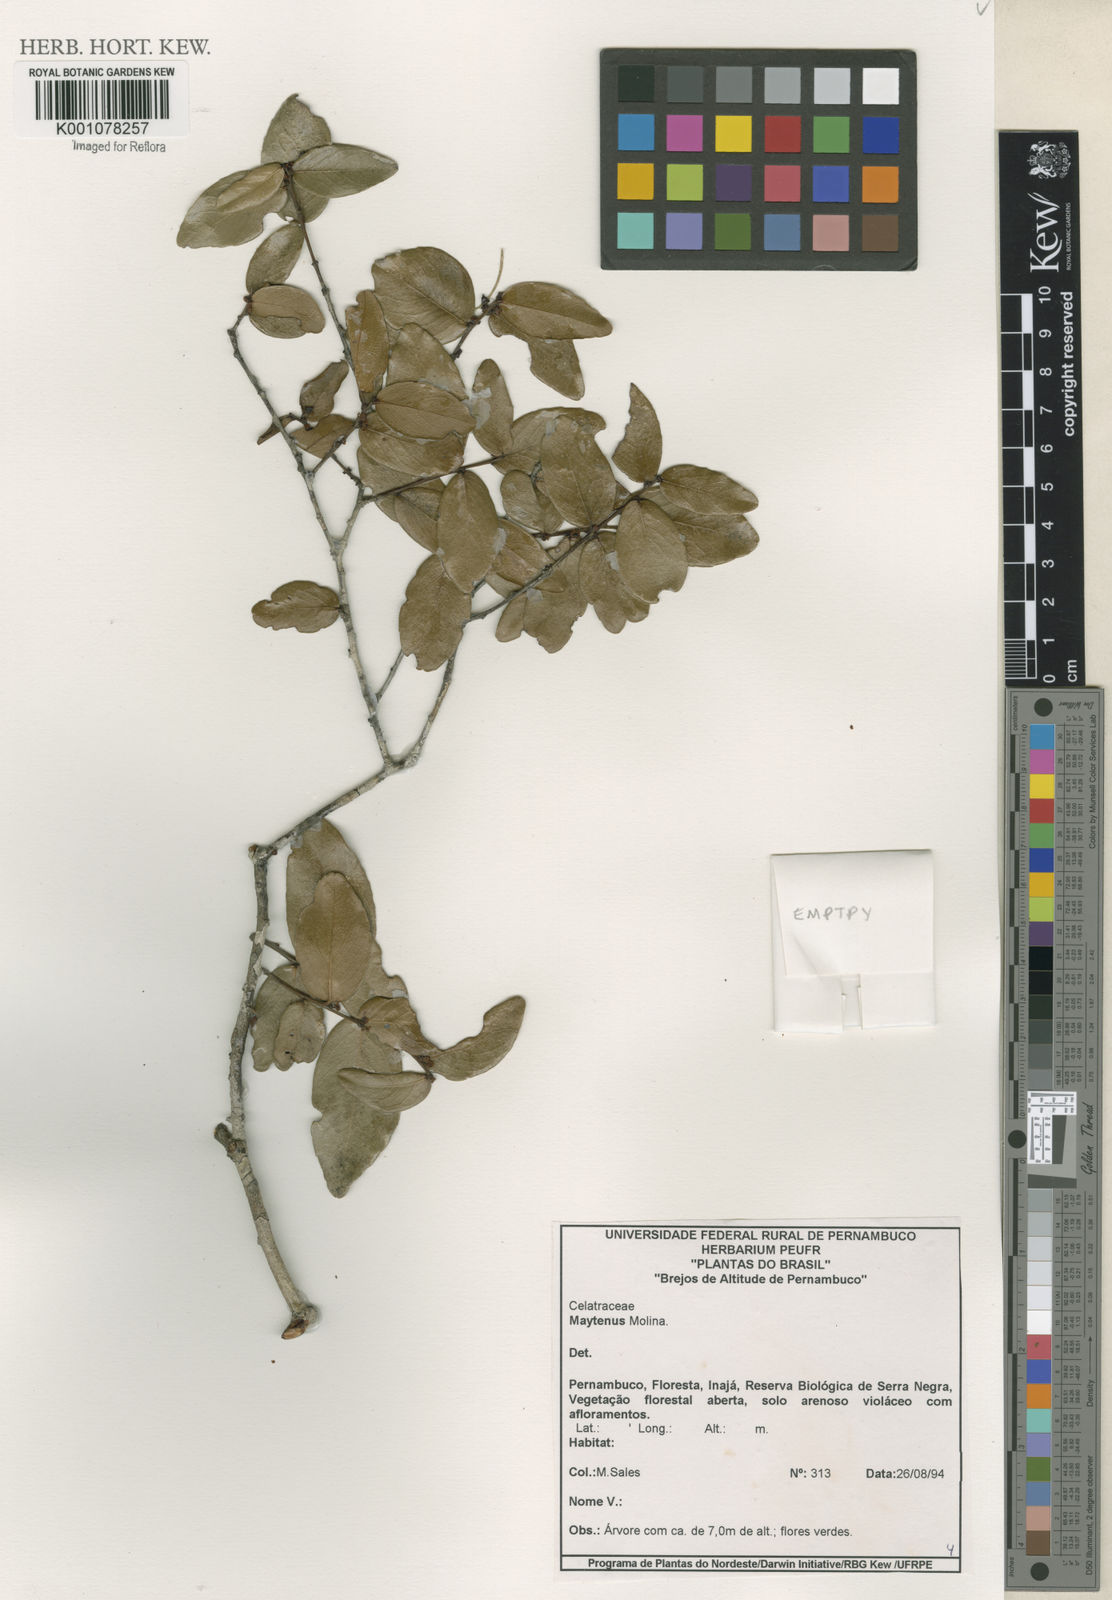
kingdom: Plantae
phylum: Tracheophyta
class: Magnoliopsida
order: Celastrales
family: Celastraceae
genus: Maytenus
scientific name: Maytenus
